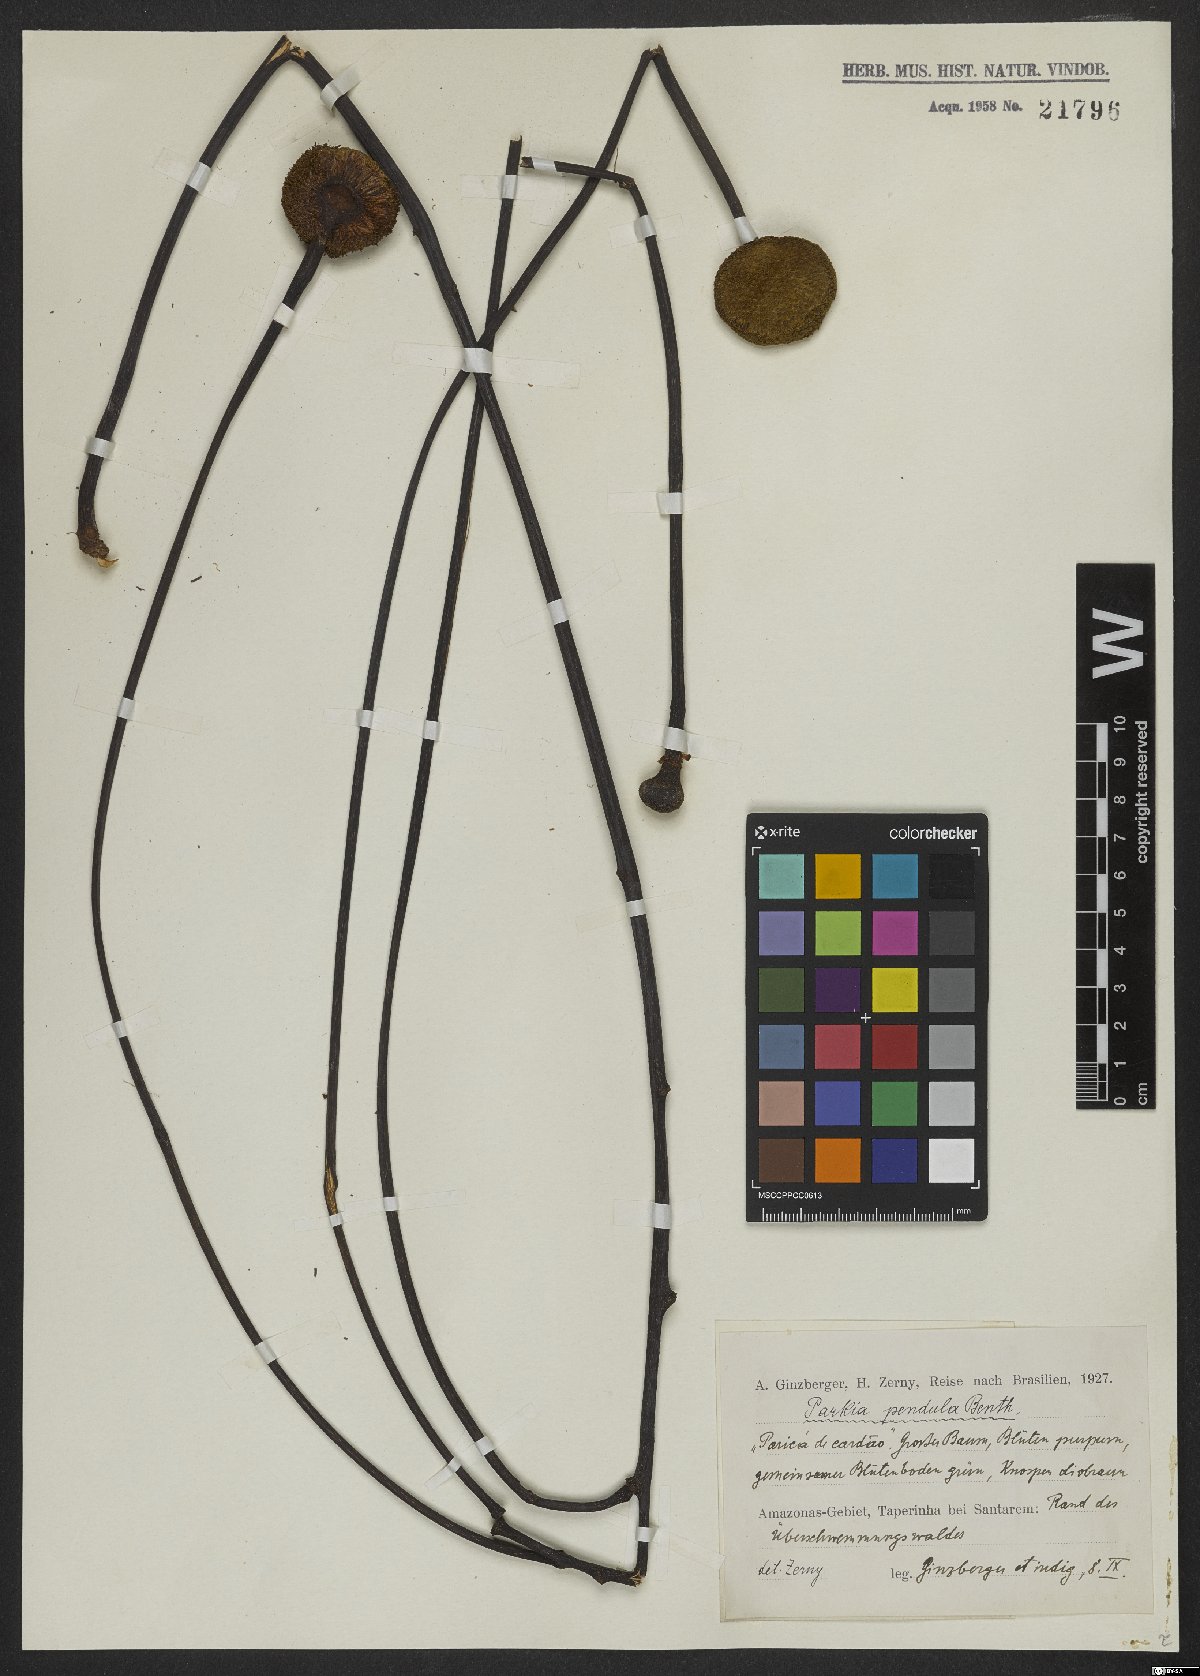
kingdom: Plantae
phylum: Tracheophyta
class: Magnoliopsida
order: Fabales
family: Fabaceae
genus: Parkia
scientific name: Parkia pendula
